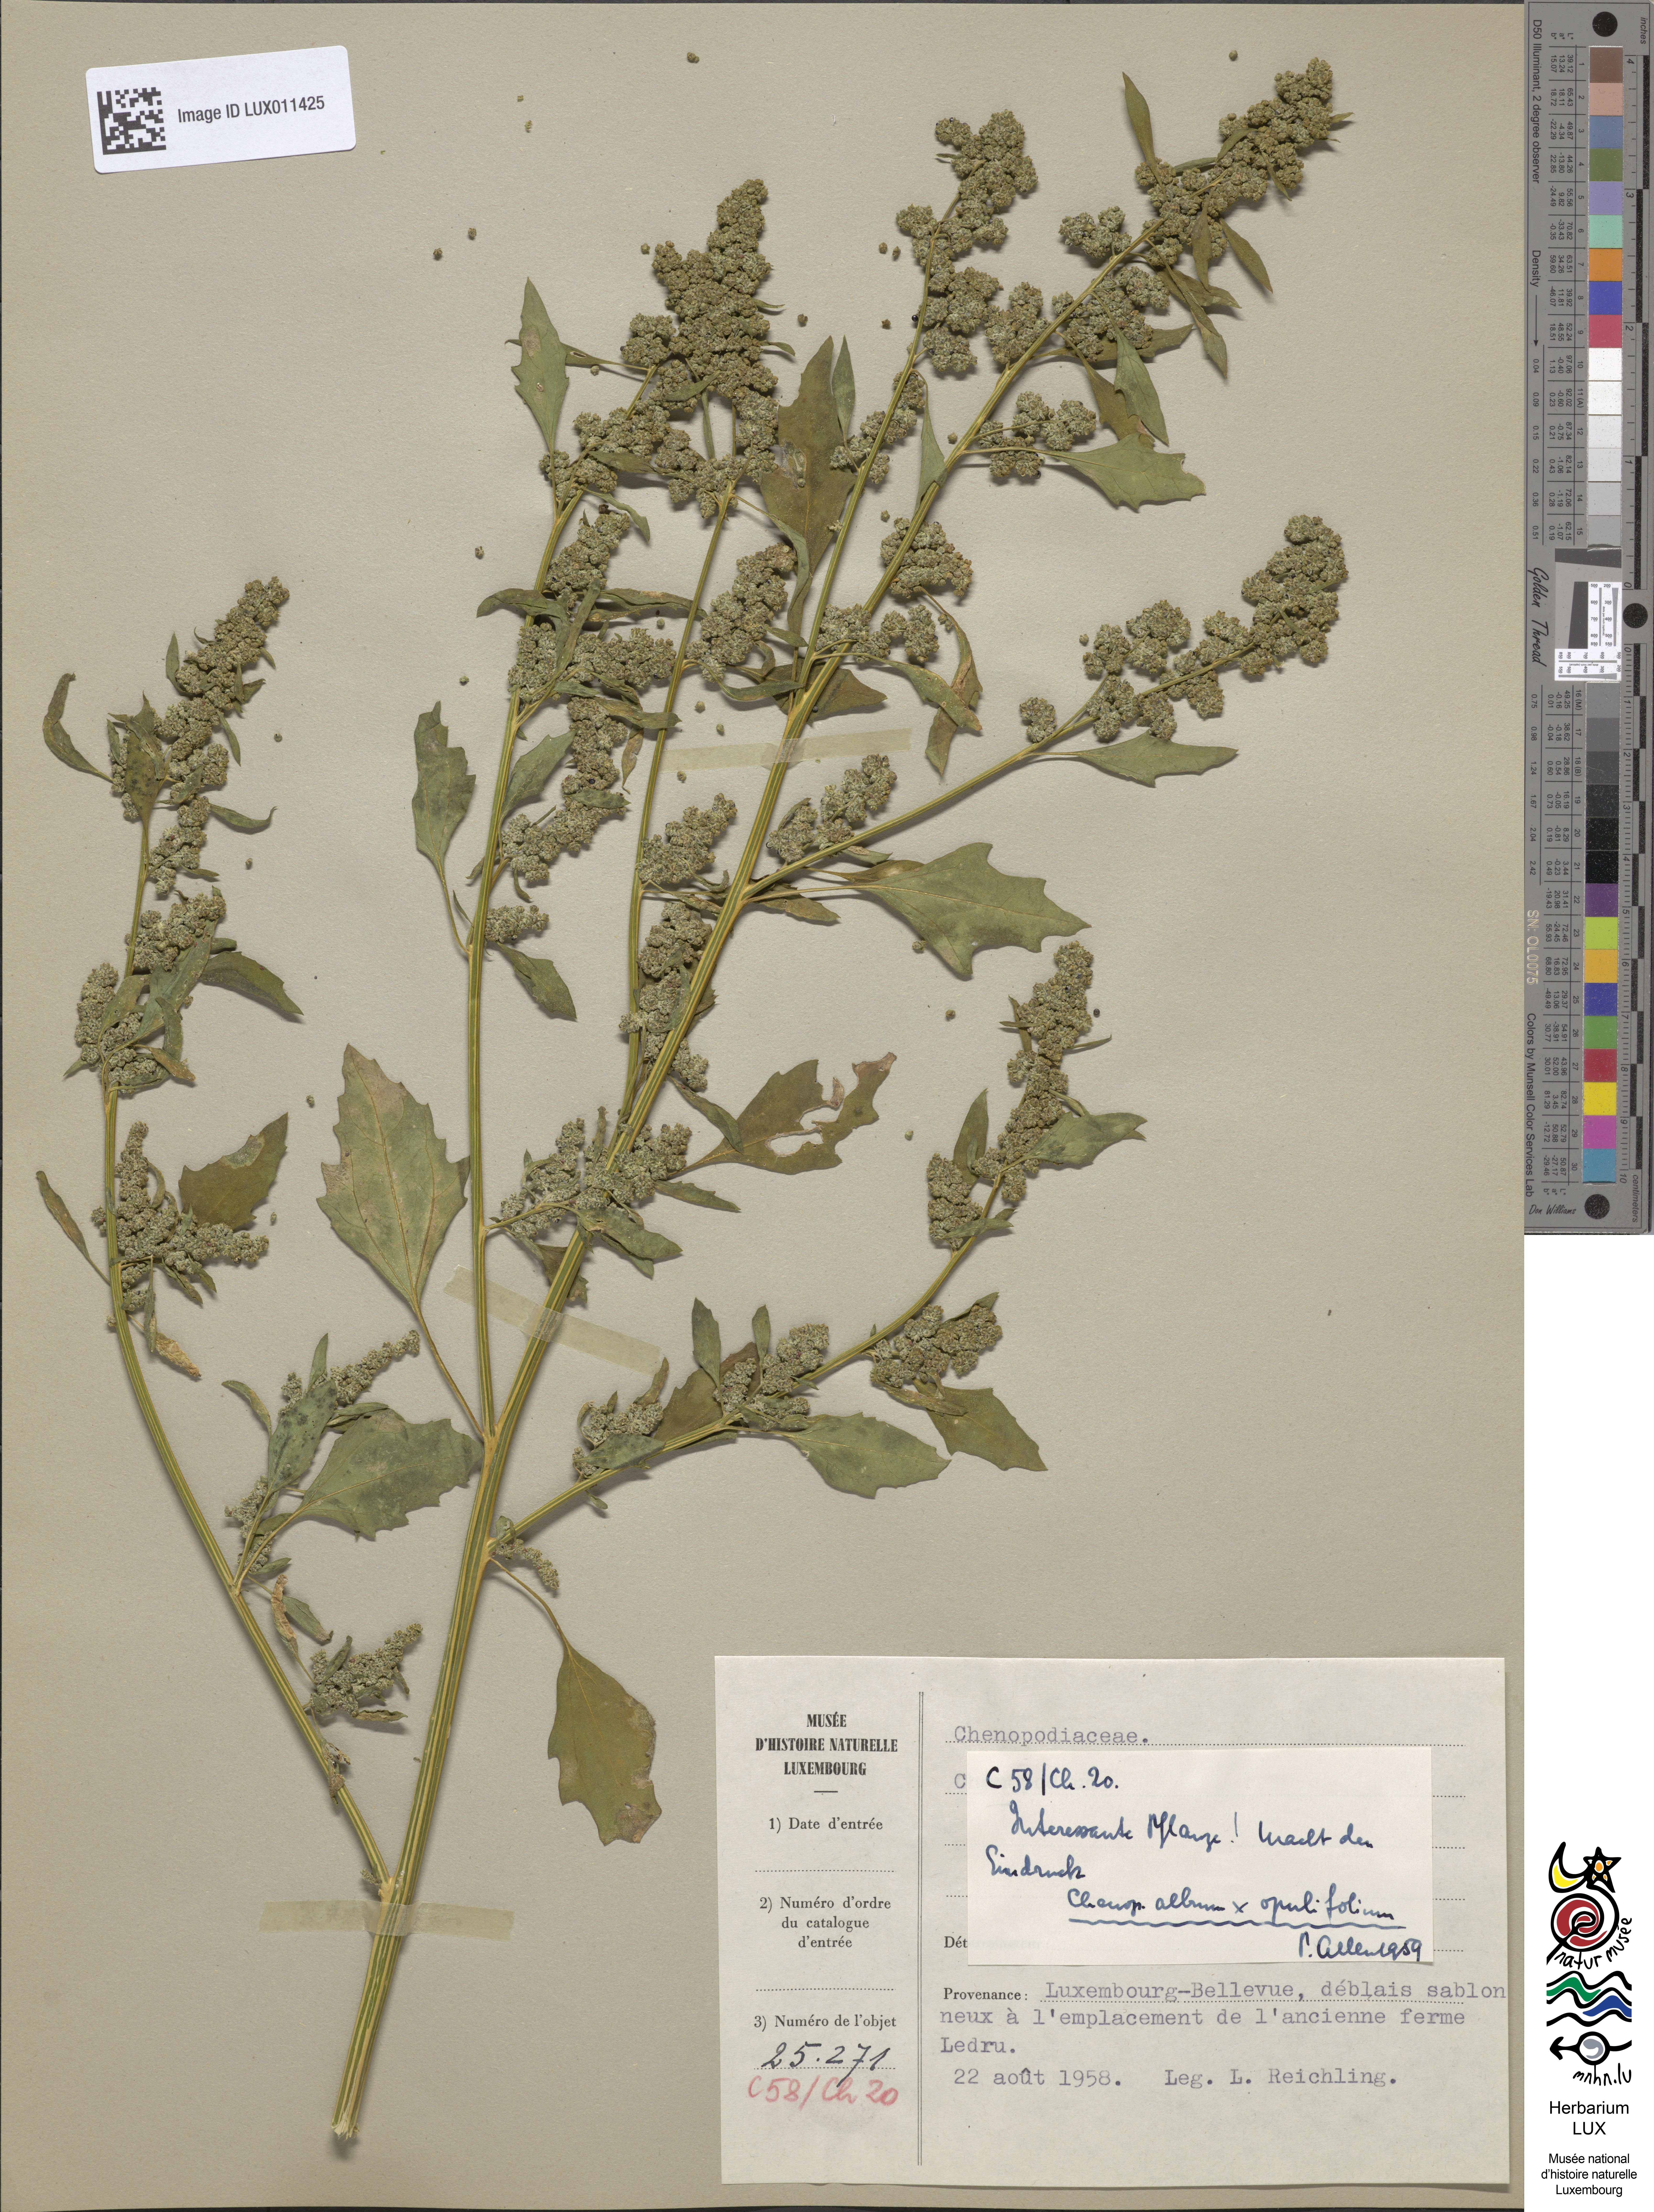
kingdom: Plantae
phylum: Tracheophyta
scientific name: Tracheophyta
